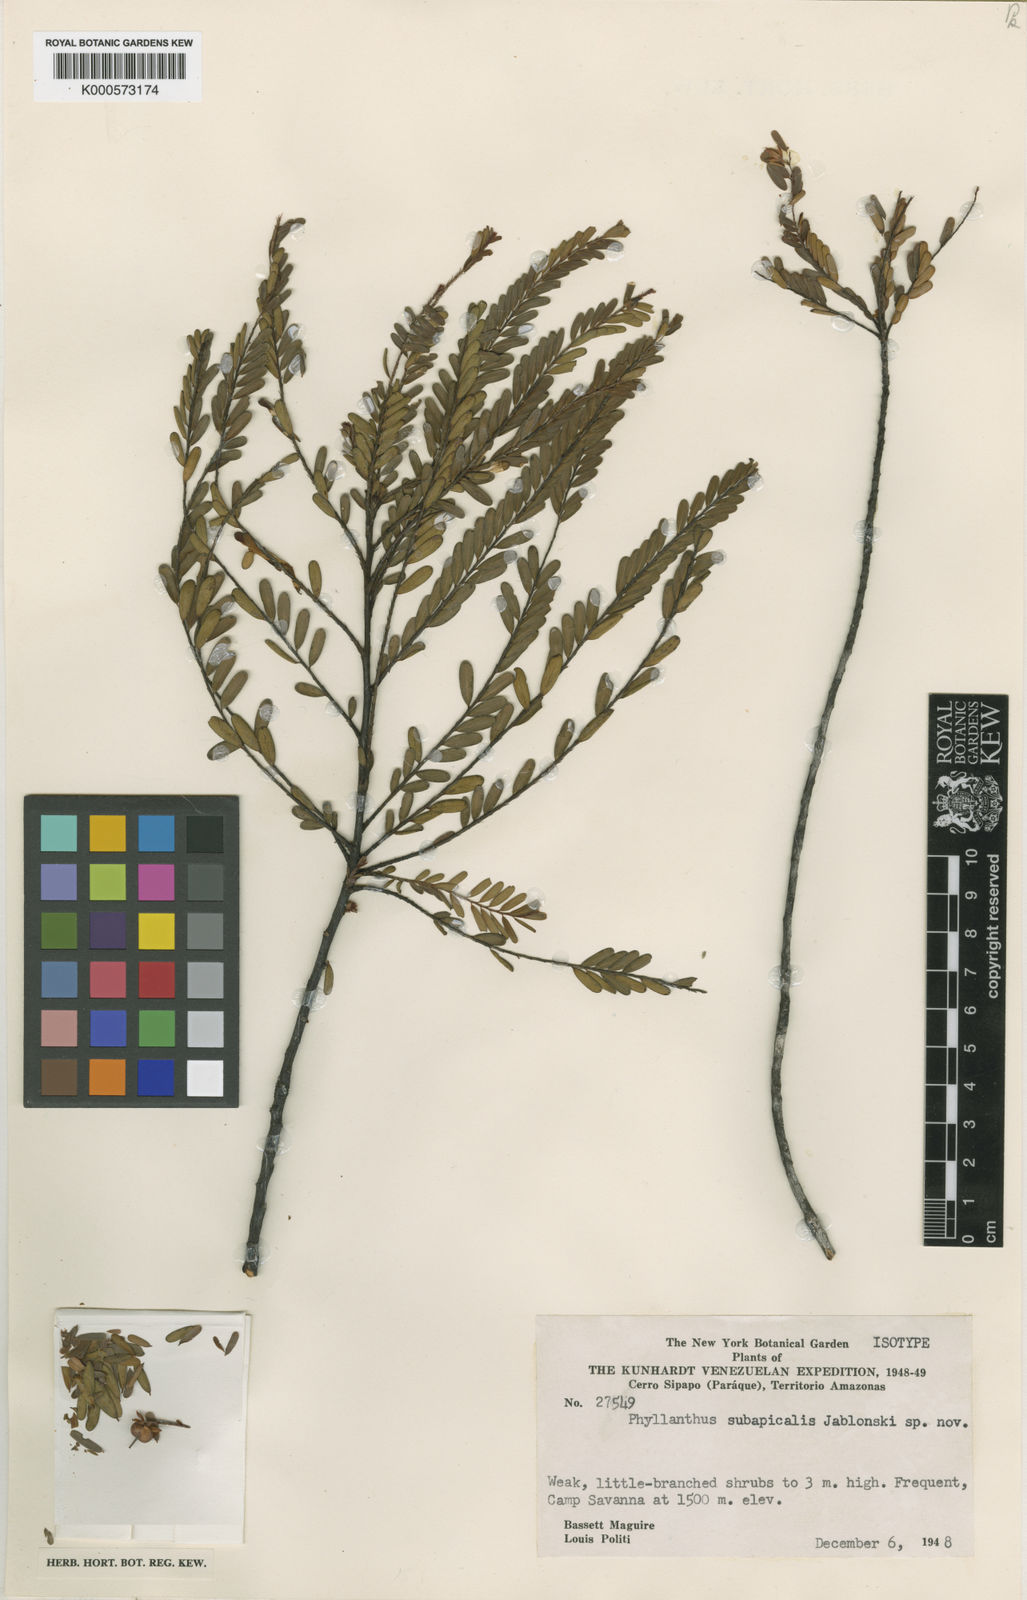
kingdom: Plantae
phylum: Tracheophyta
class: Magnoliopsida
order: Malpighiales
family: Phyllanthaceae
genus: Phyllanthus
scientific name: Phyllanthus subapicalis
